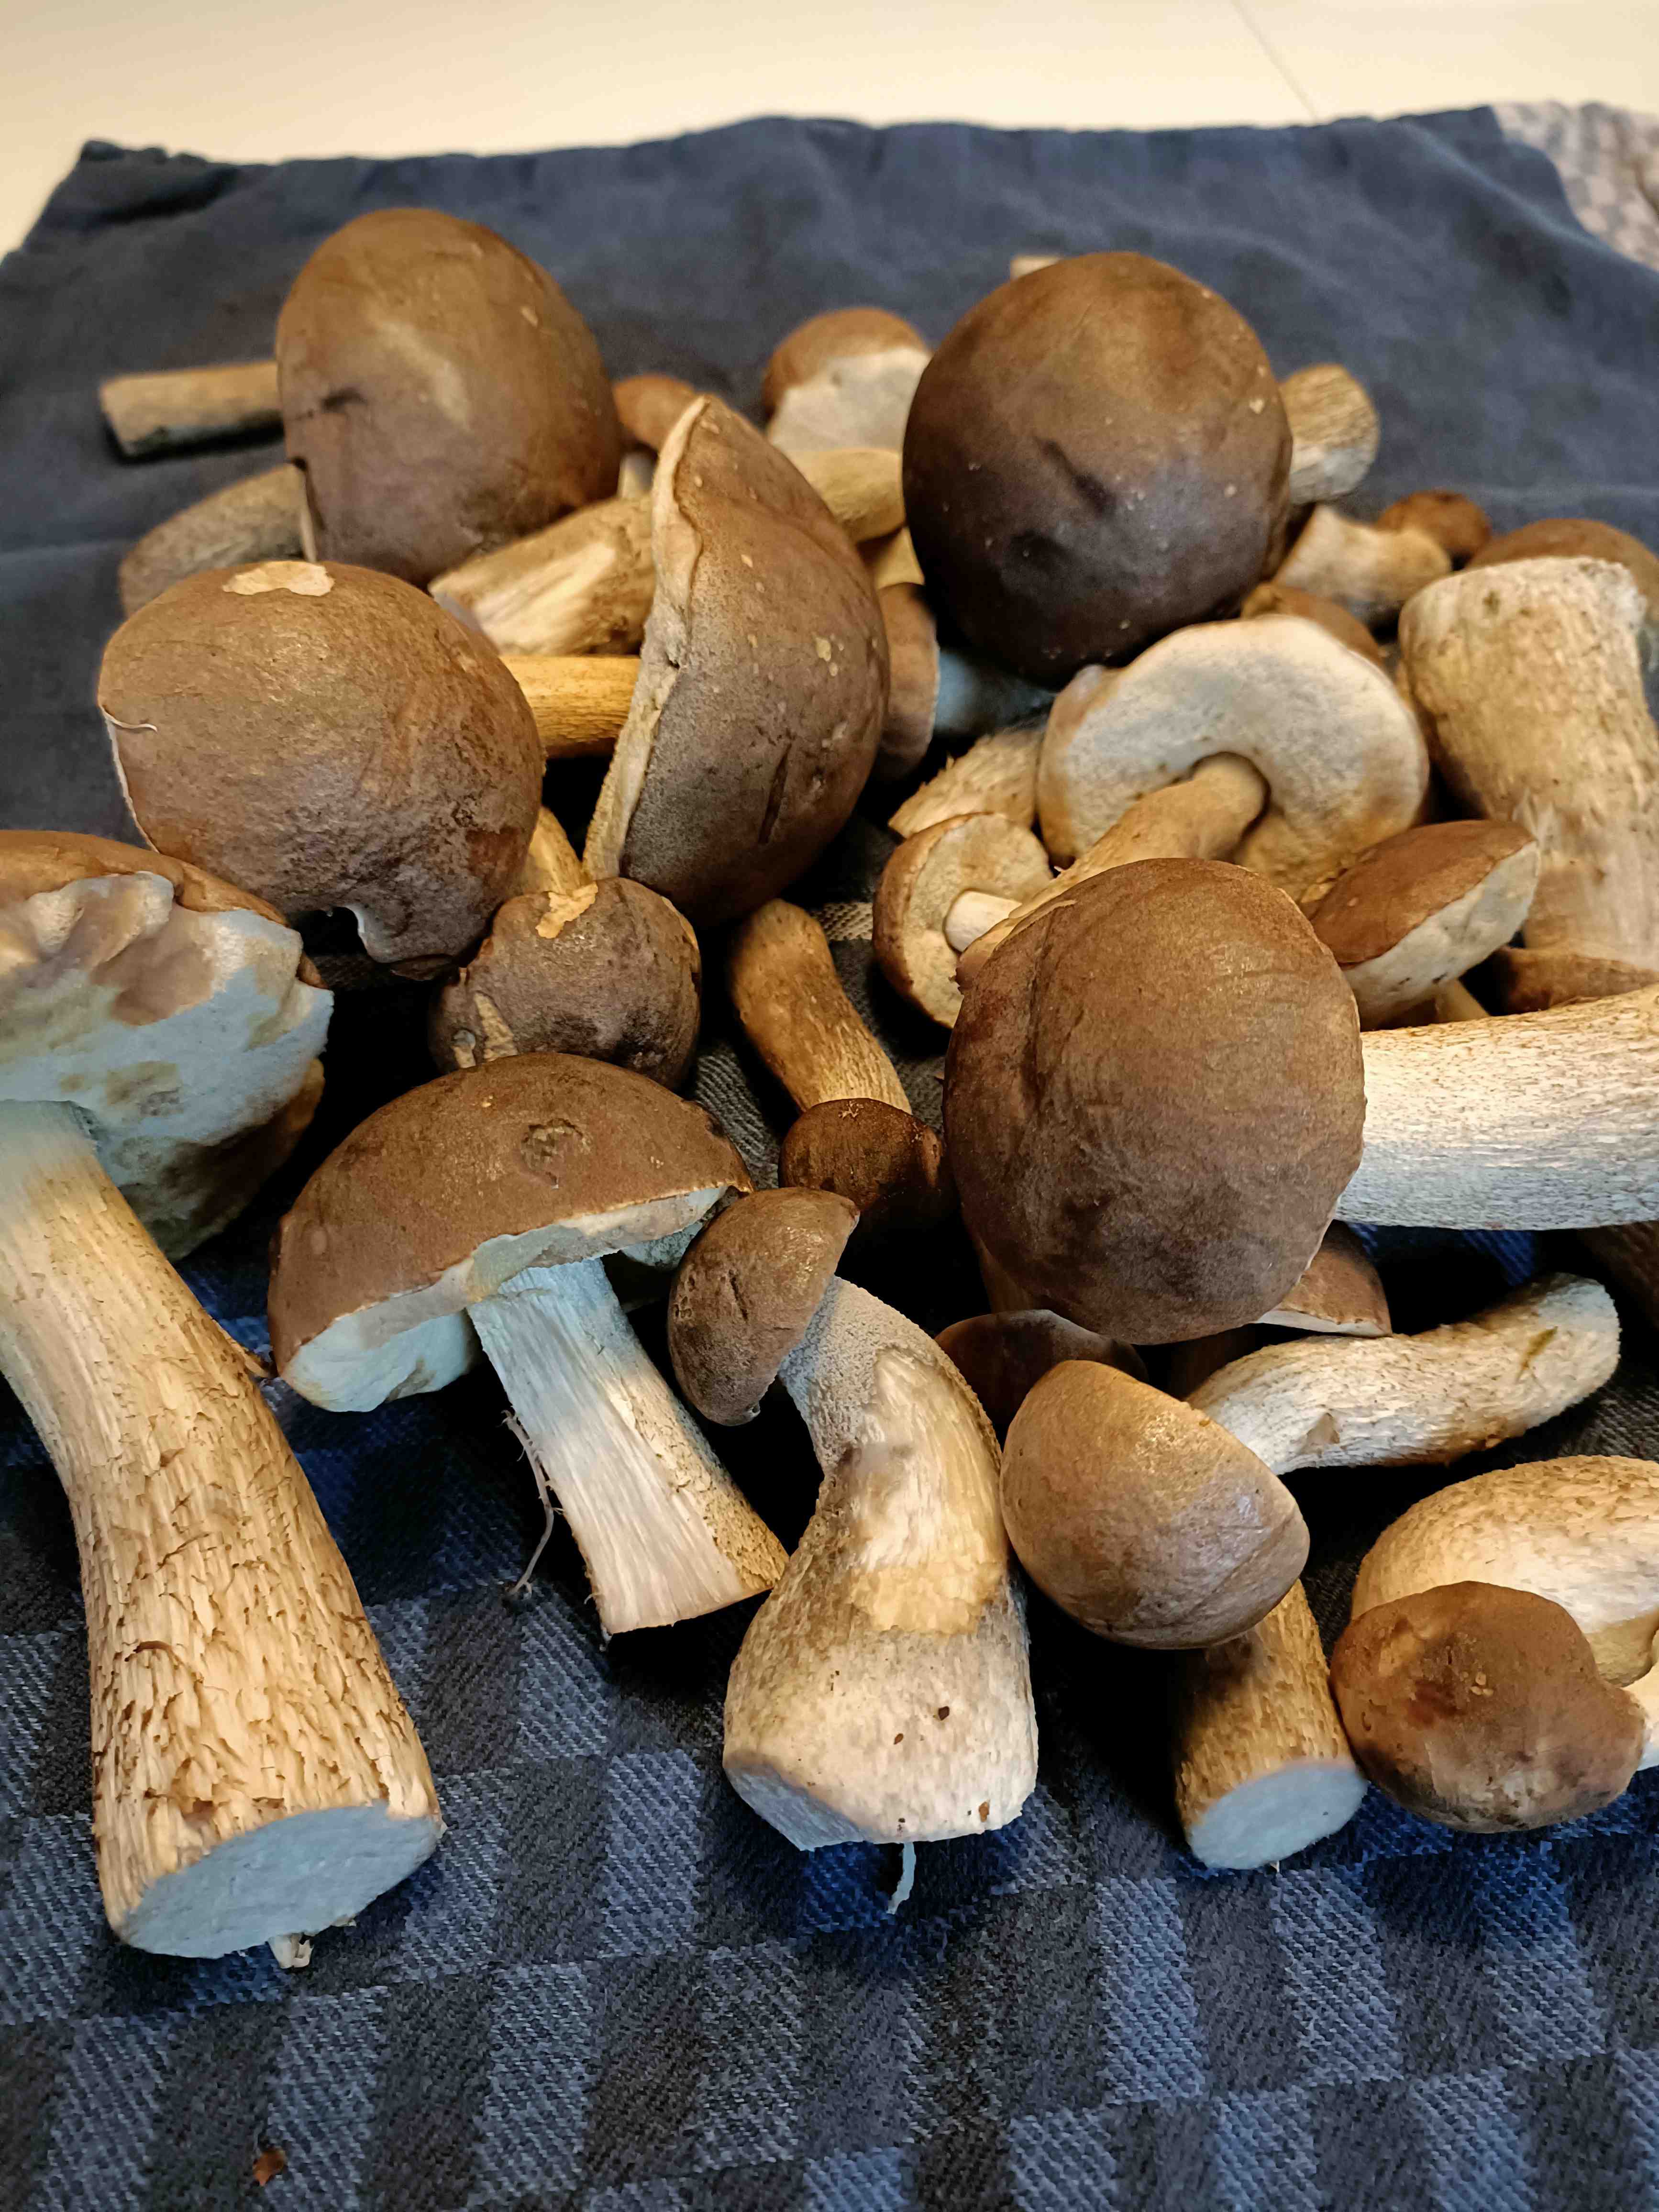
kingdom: Fungi
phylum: Basidiomycota
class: Agaricomycetes
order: Boletales
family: Boletaceae
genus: Leccinum
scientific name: Leccinum
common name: skælrørhat
